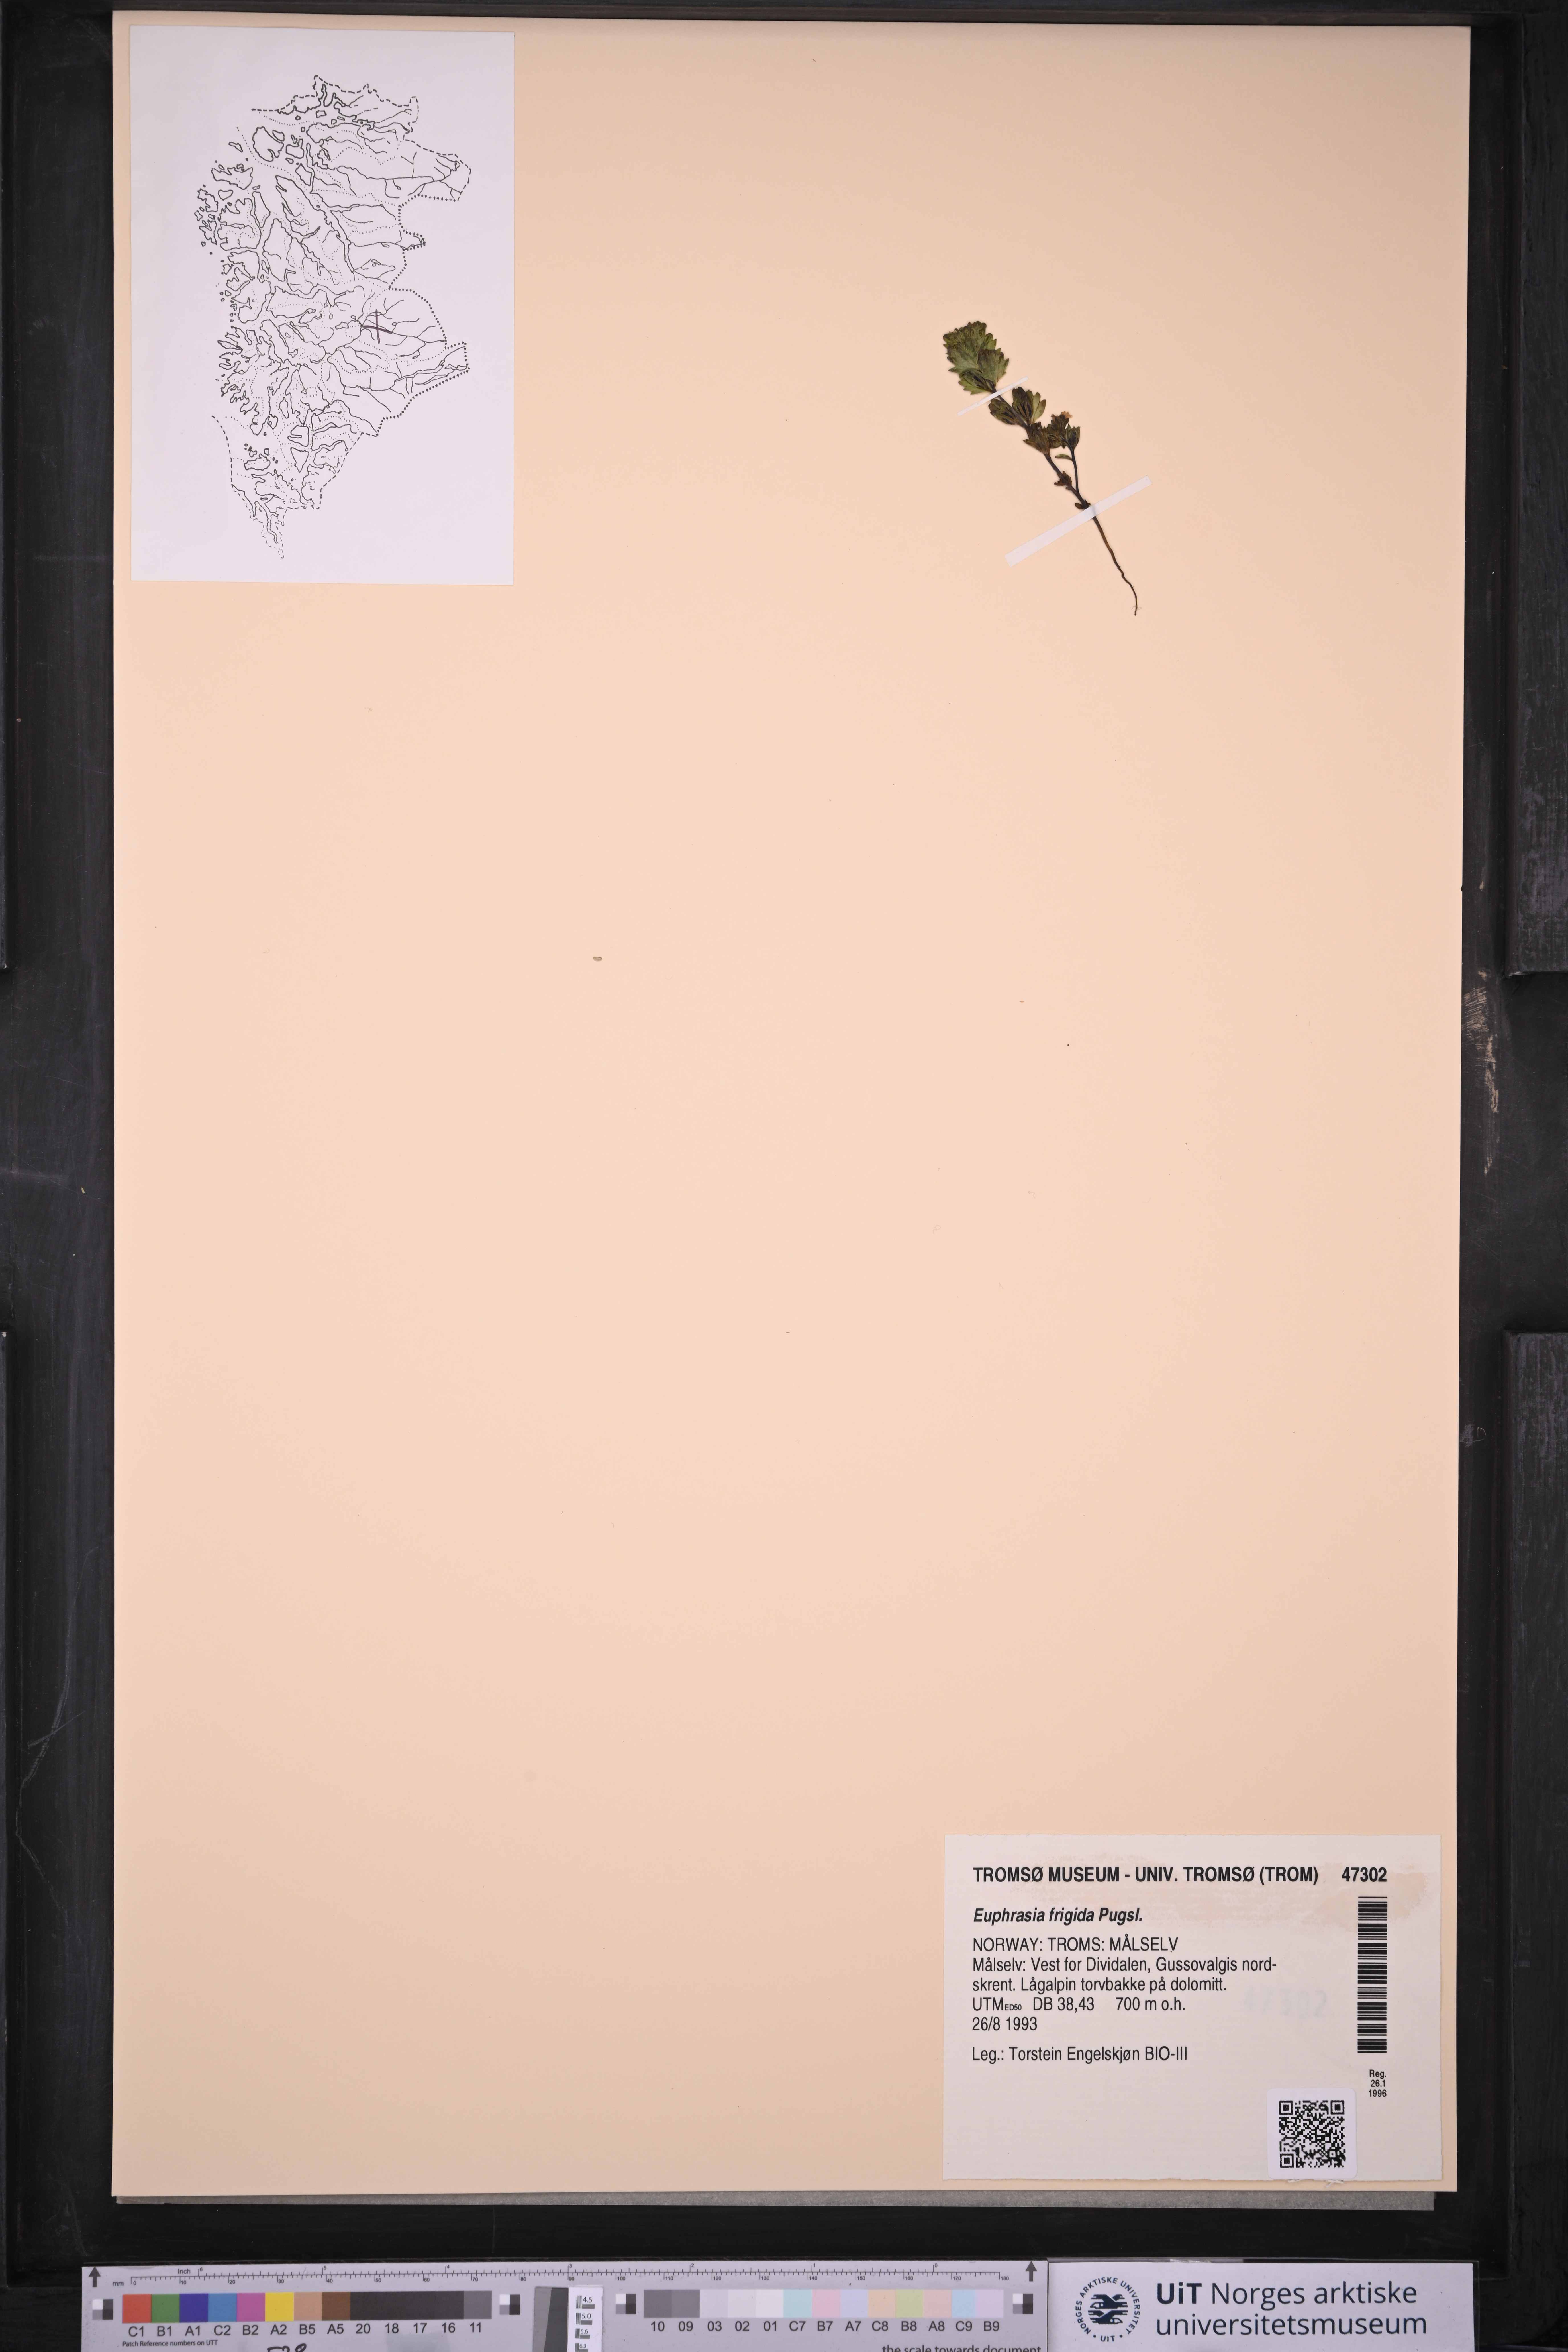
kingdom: Plantae
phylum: Tracheophyta
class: Magnoliopsida
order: Lamiales
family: Orobanchaceae
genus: Euphrasia
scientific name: Euphrasia frigida
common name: An eyebright
